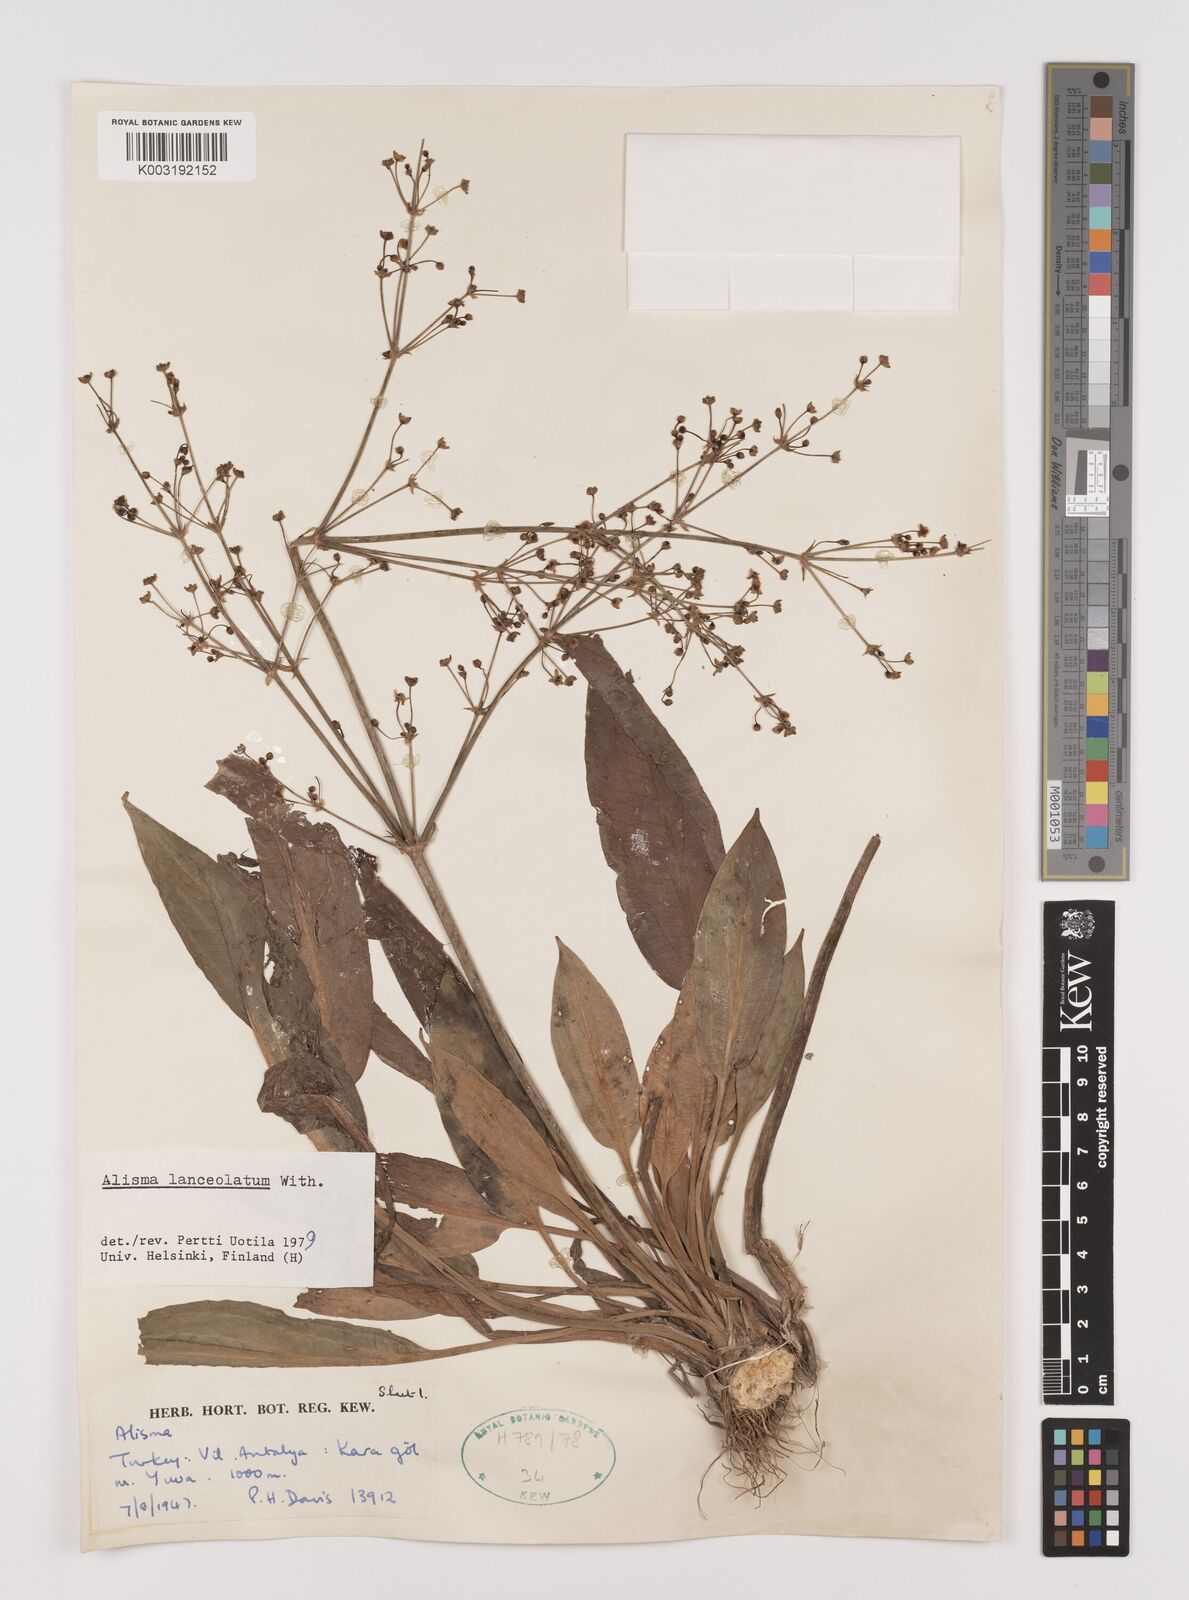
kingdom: Plantae
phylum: Tracheophyta
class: Liliopsida
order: Alismatales
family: Alismataceae
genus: Alisma
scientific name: Alisma lanceolatum
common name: Narrow-leaved water-plantain
